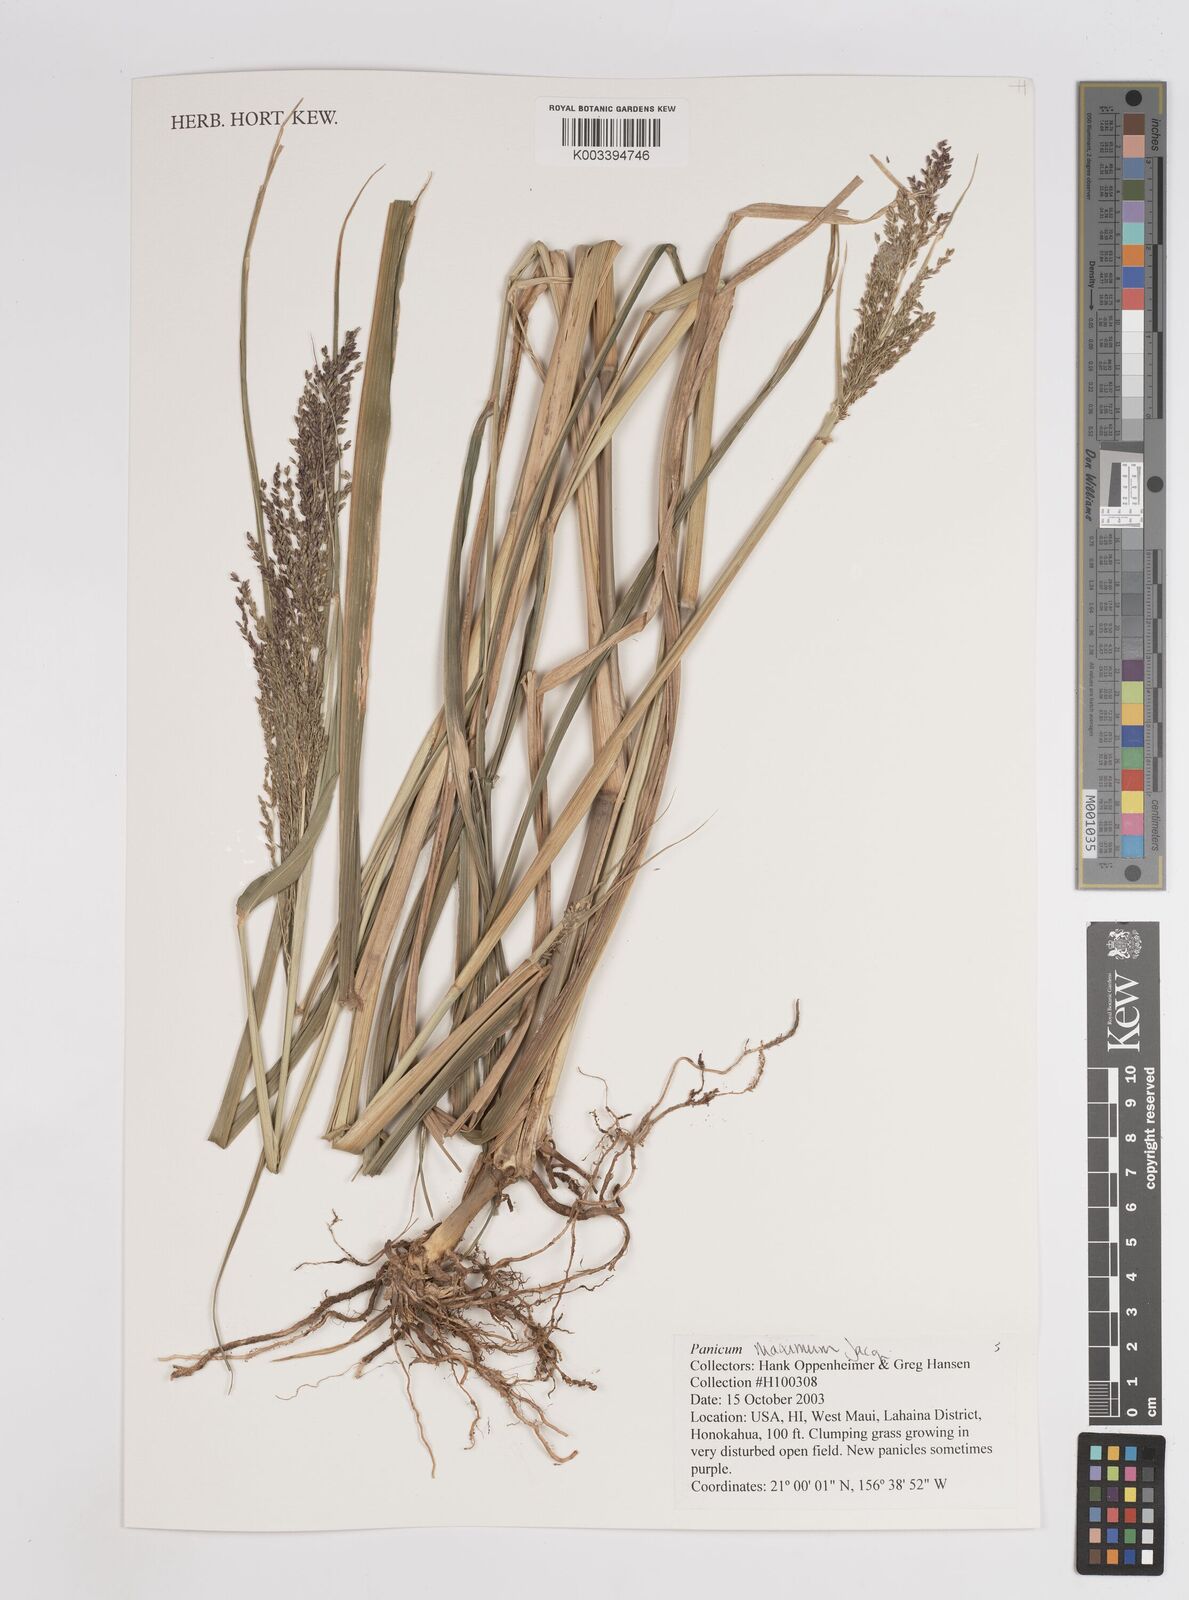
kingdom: Plantae
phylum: Tracheophyta
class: Liliopsida
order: Poales
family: Poaceae
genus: Megathyrsus
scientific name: Megathyrsus maximus
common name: Guineagrass
